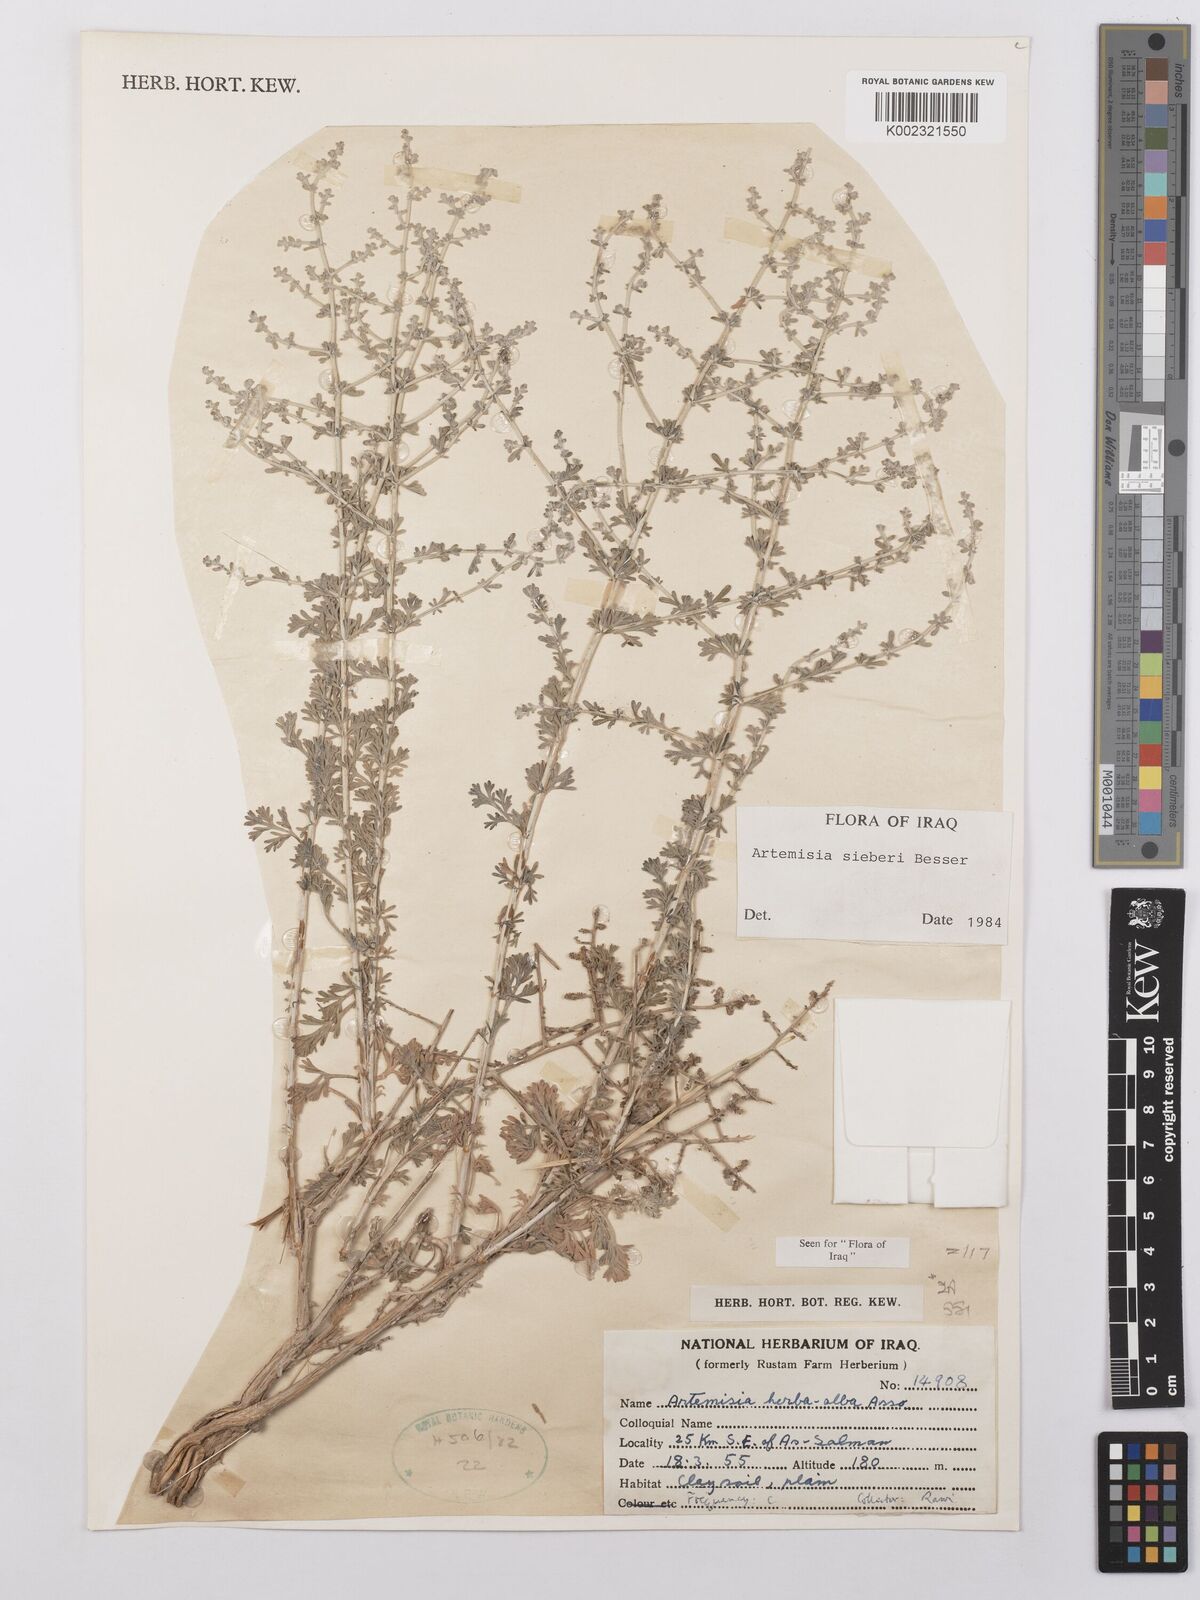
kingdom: Plantae
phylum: Tracheophyta
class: Magnoliopsida
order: Asterales
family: Asteraceae
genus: Artemisia
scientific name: Artemisia sieberi
